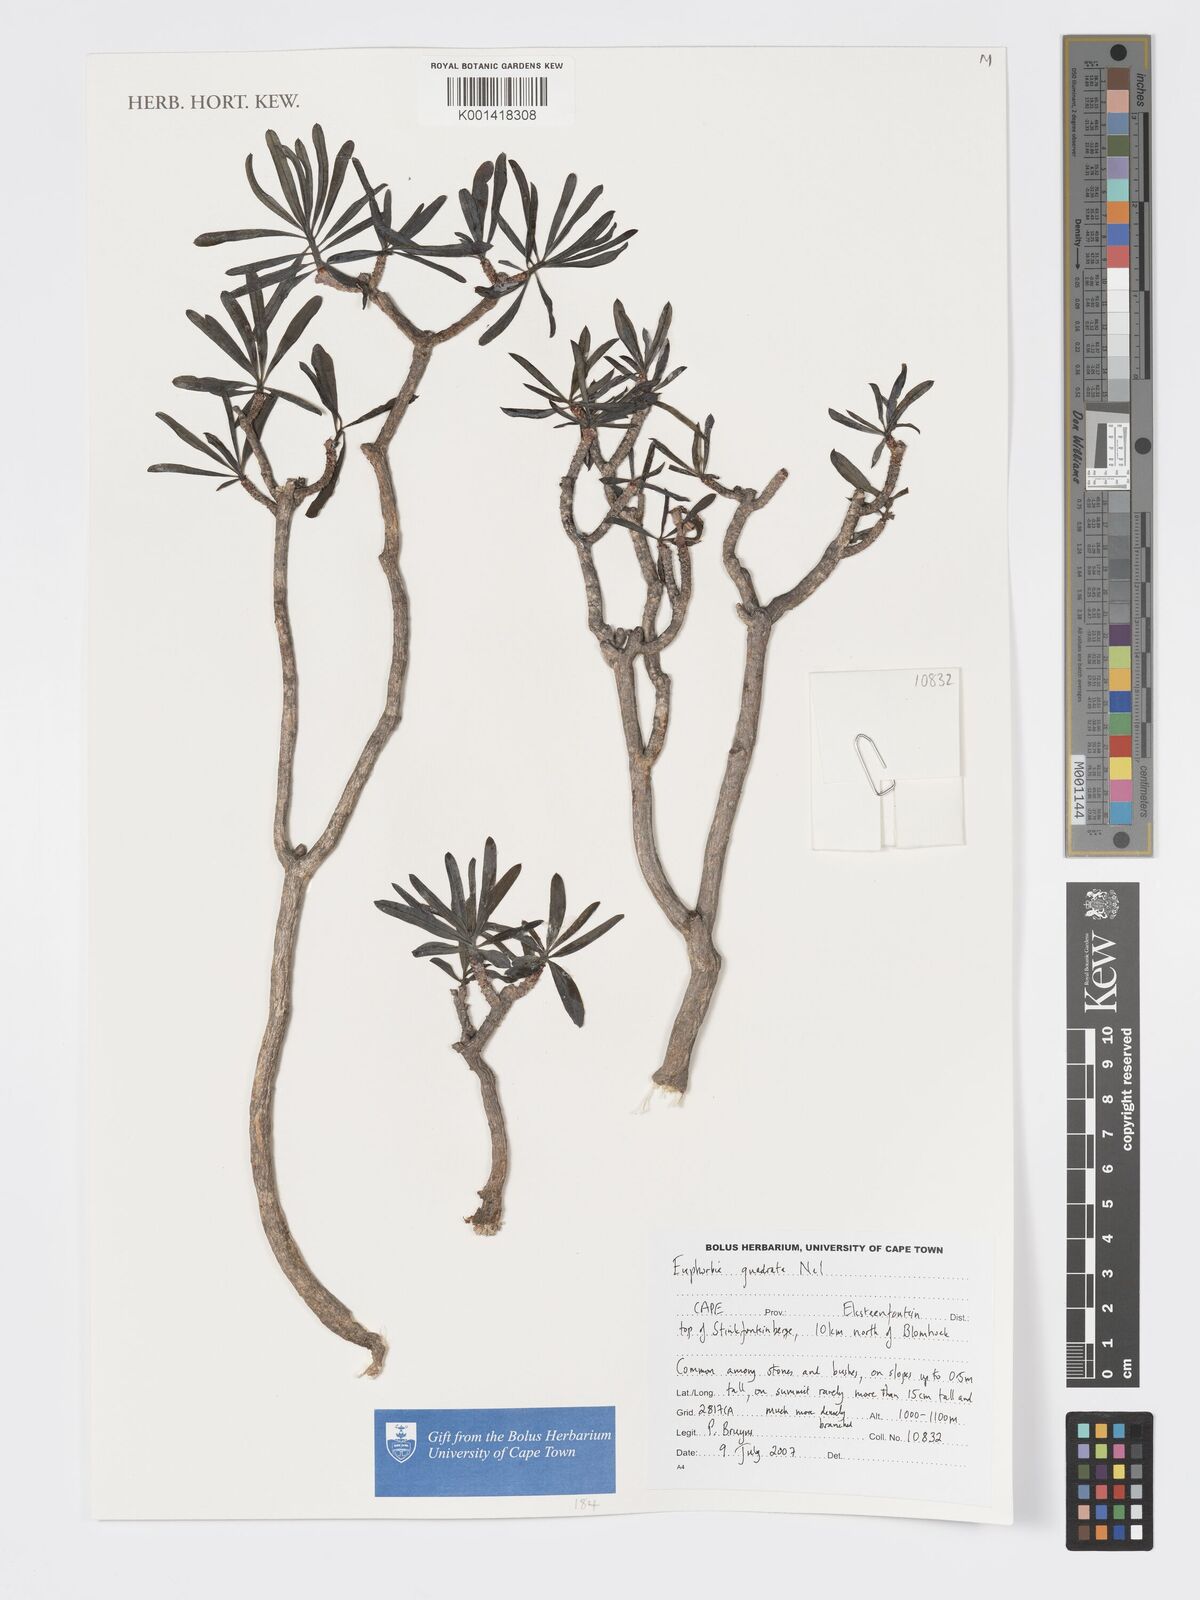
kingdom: Plantae
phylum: Tracheophyta
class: Magnoliopsida
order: Malpighiales
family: Euphorbiaceae
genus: Euphorbia
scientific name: Euphorbia quadrata
